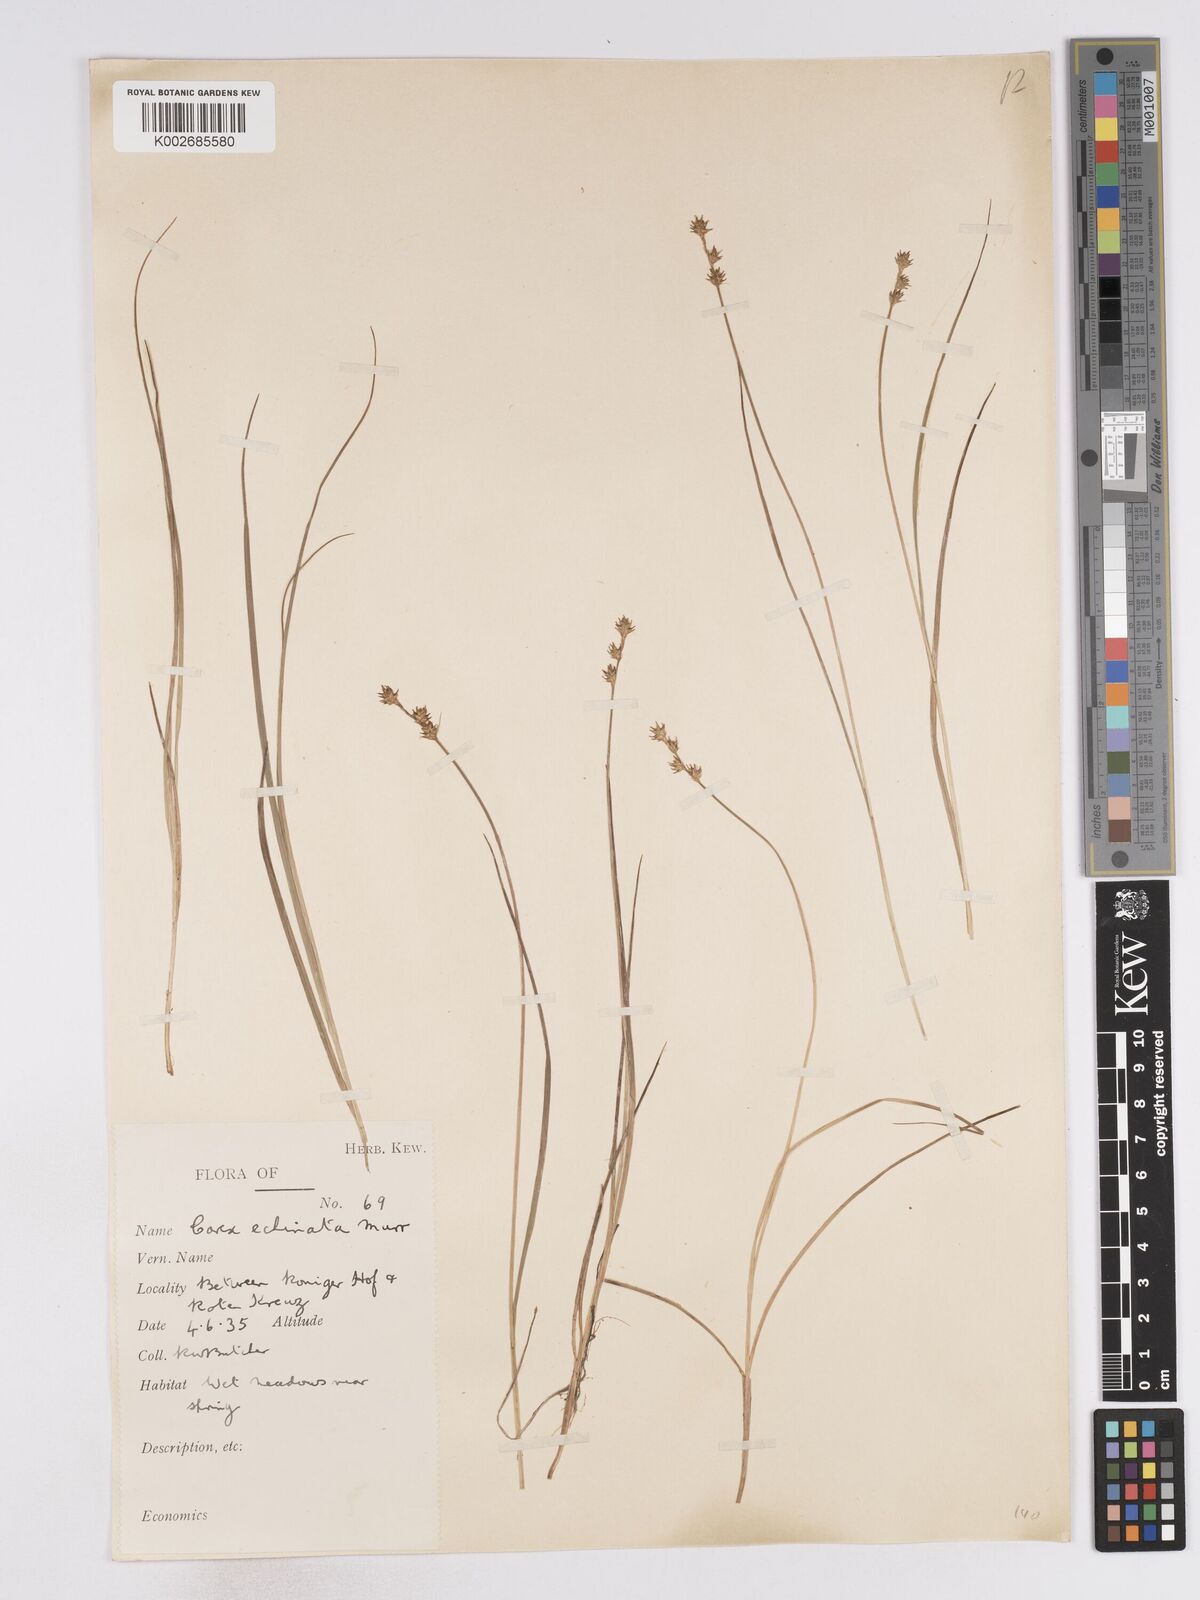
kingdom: Plantae
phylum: Tracheophyta
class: Liliopsida
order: Poales
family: Cyperaceae
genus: Carex
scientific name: Carex echinata
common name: Star sedge
